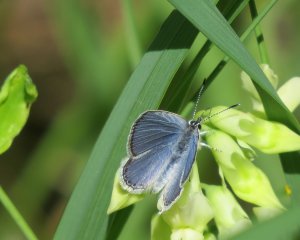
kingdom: Animalia
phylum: Arthropoda
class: Insecta
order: Lepidoptera
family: Lycaenidae
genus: Elkalyce
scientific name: Elkalyce amyntula
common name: Western Tailed-Blue
